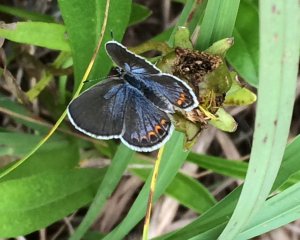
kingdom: Animalia
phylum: Arthropoda
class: Insecta
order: Lepidoptera
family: Lycaenidae
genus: Plebejus
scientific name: Plebejus samuelis
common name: Karner Blue
